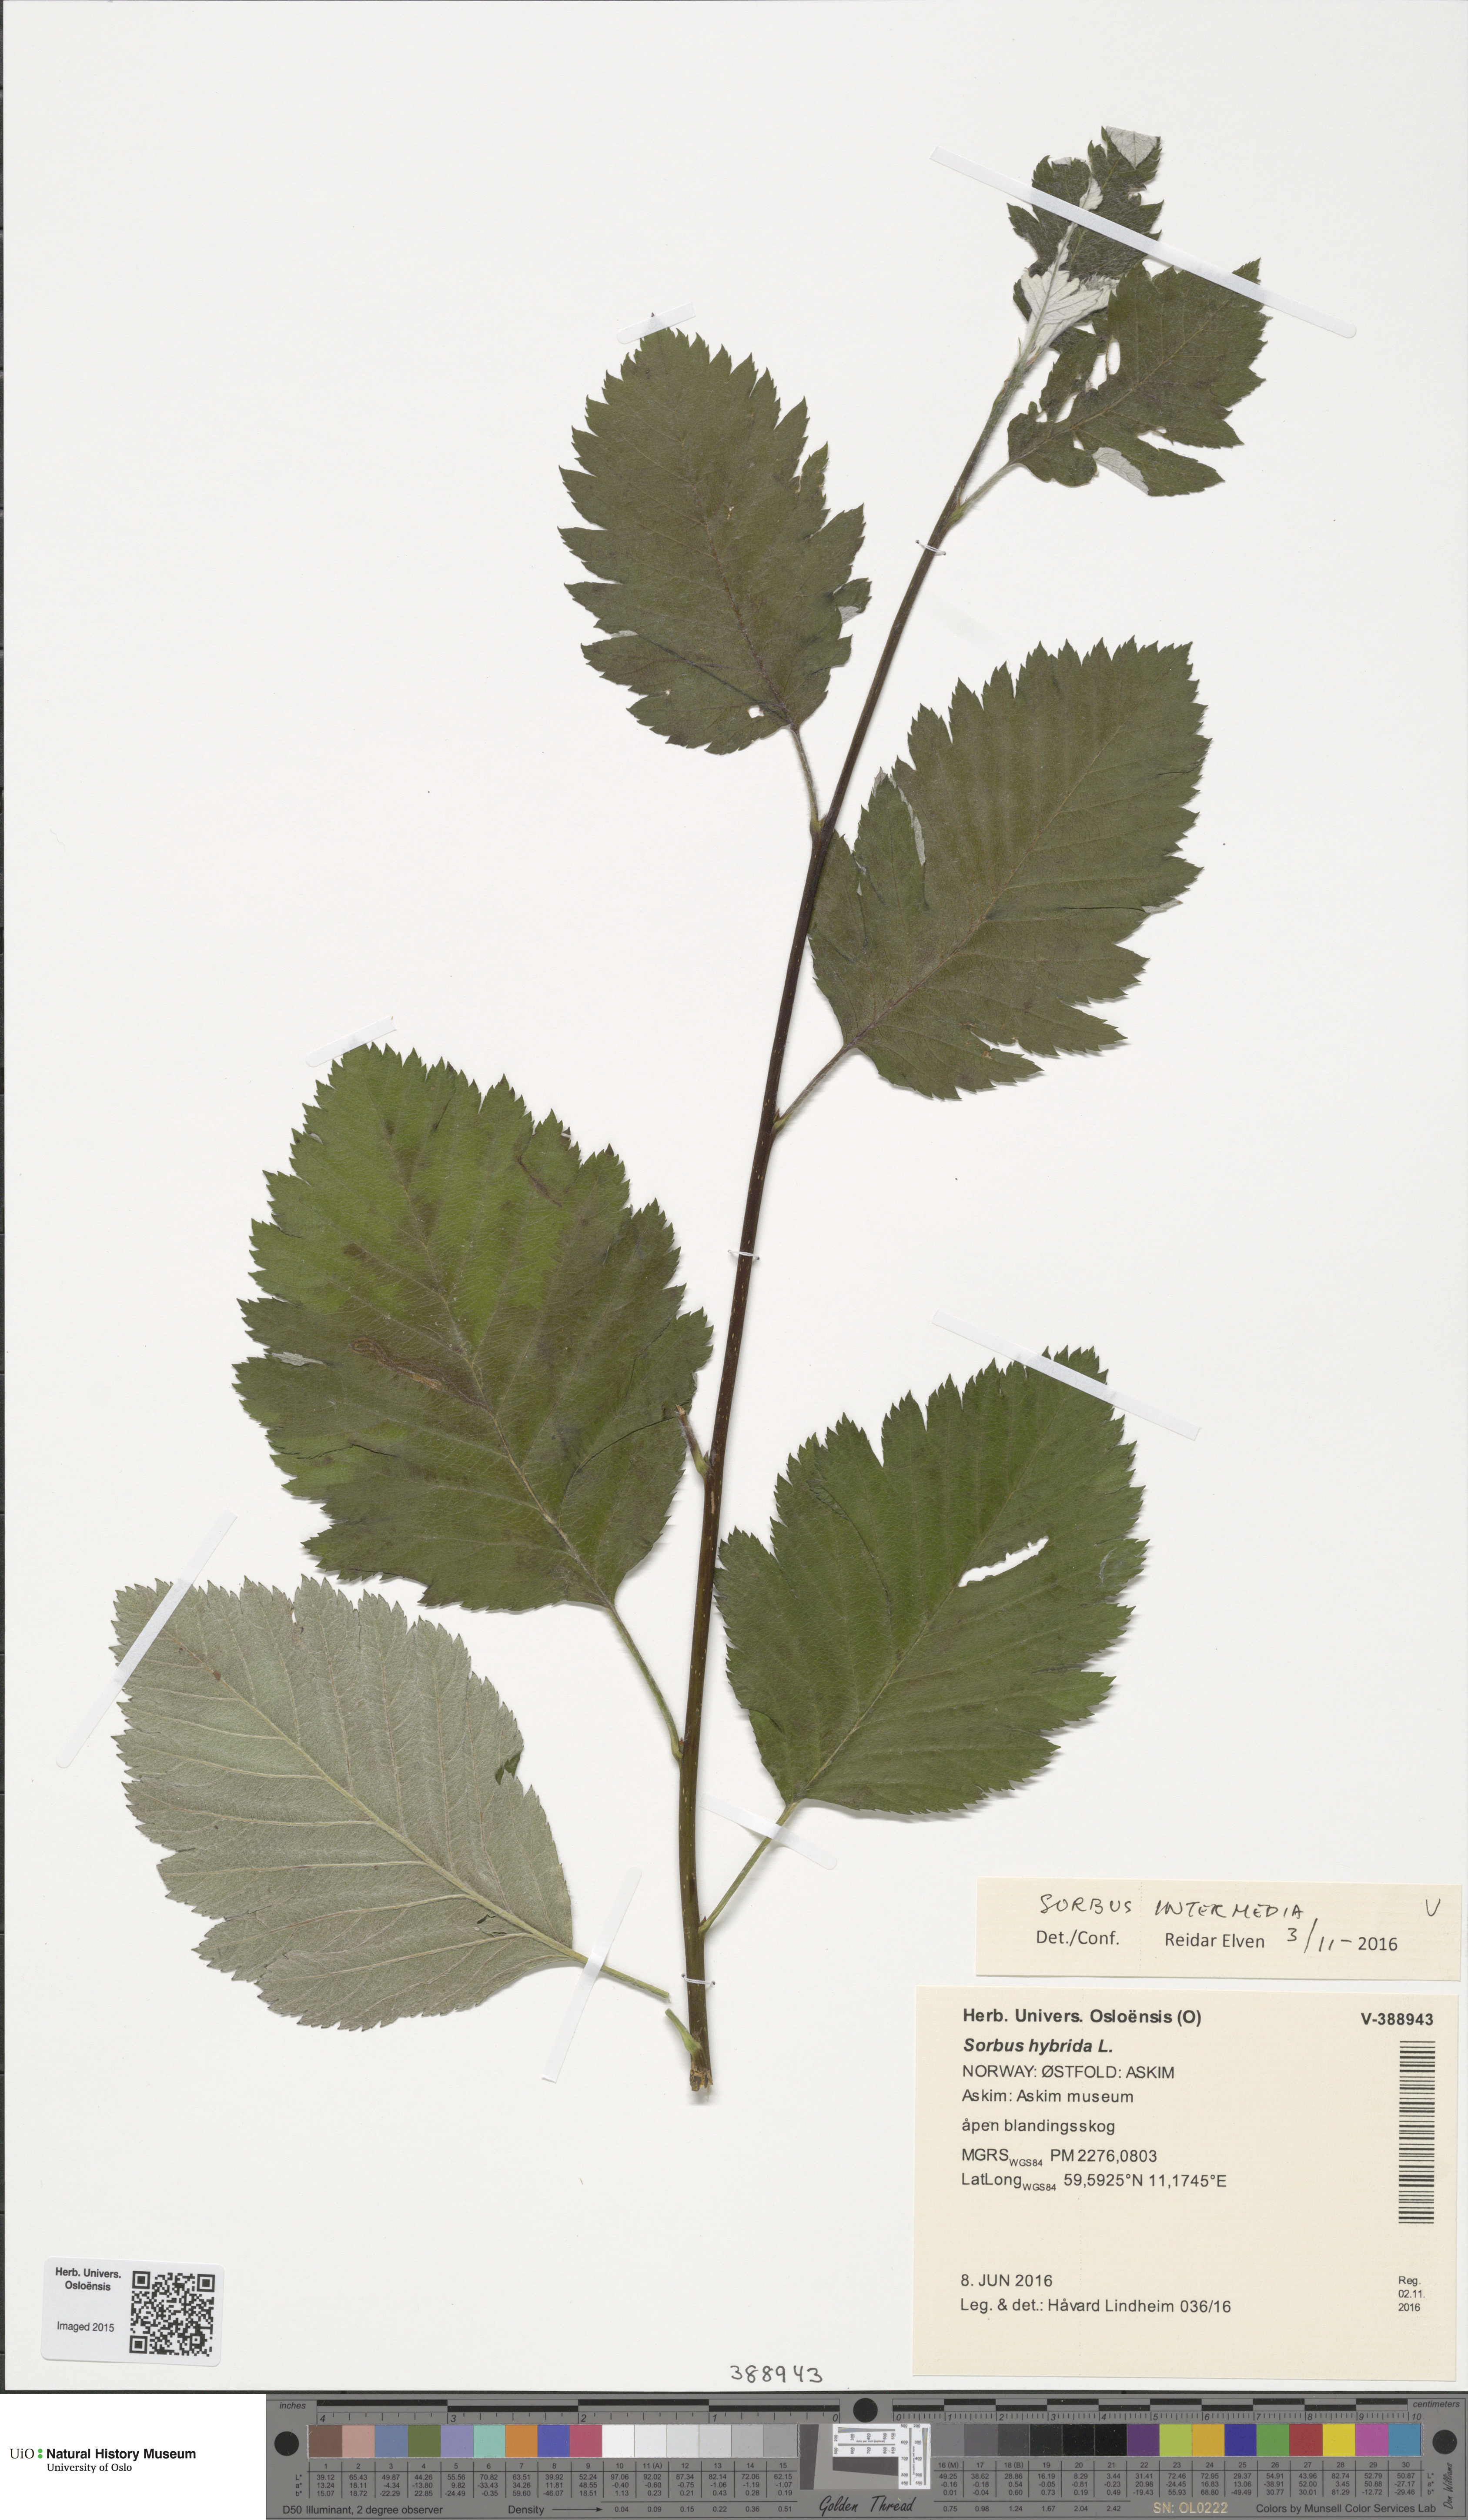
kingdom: Plantae
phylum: Tracheophyta
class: Magnoliopsida
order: Rosales
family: Rosaceae
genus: Scandosorbus
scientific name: Scandosorbus intermedia
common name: Swedish whitebeam
